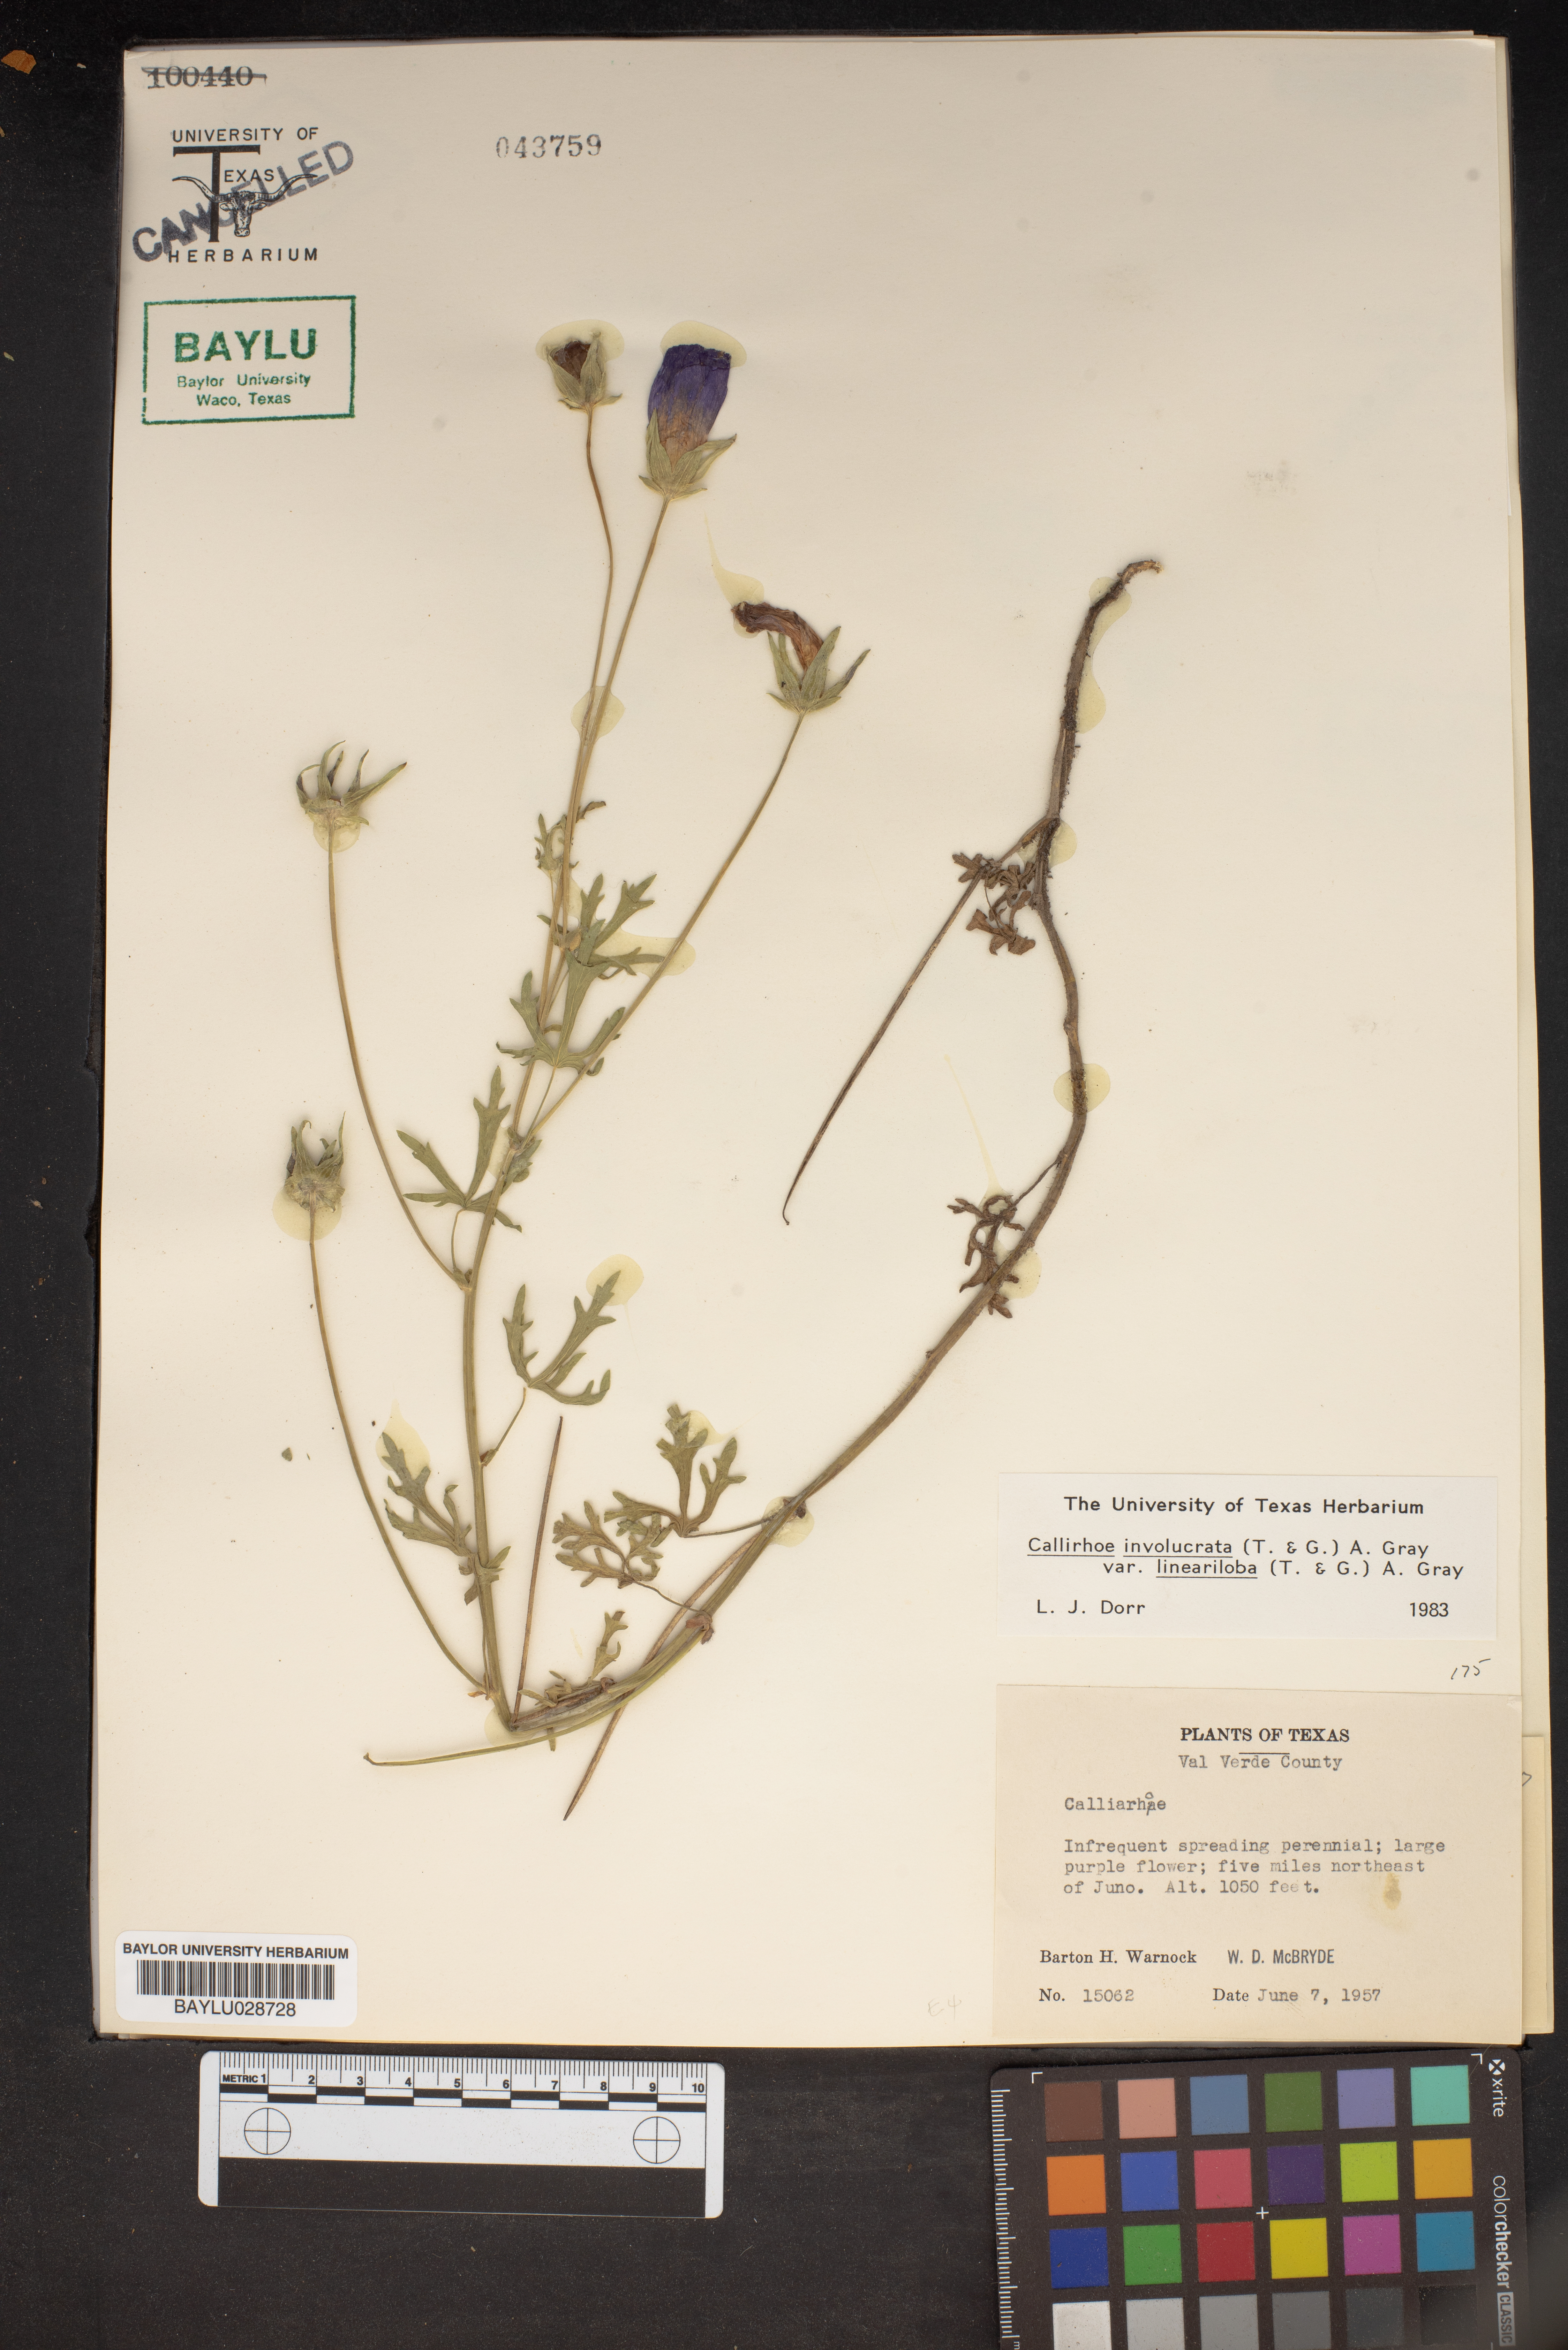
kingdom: Plantae
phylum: Tracheophyta
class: Magnoliopsida
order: Malvales
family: Malvaceae
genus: Callirhoe
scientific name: Callirhoe involucrata
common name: Purple poppy-mallow
